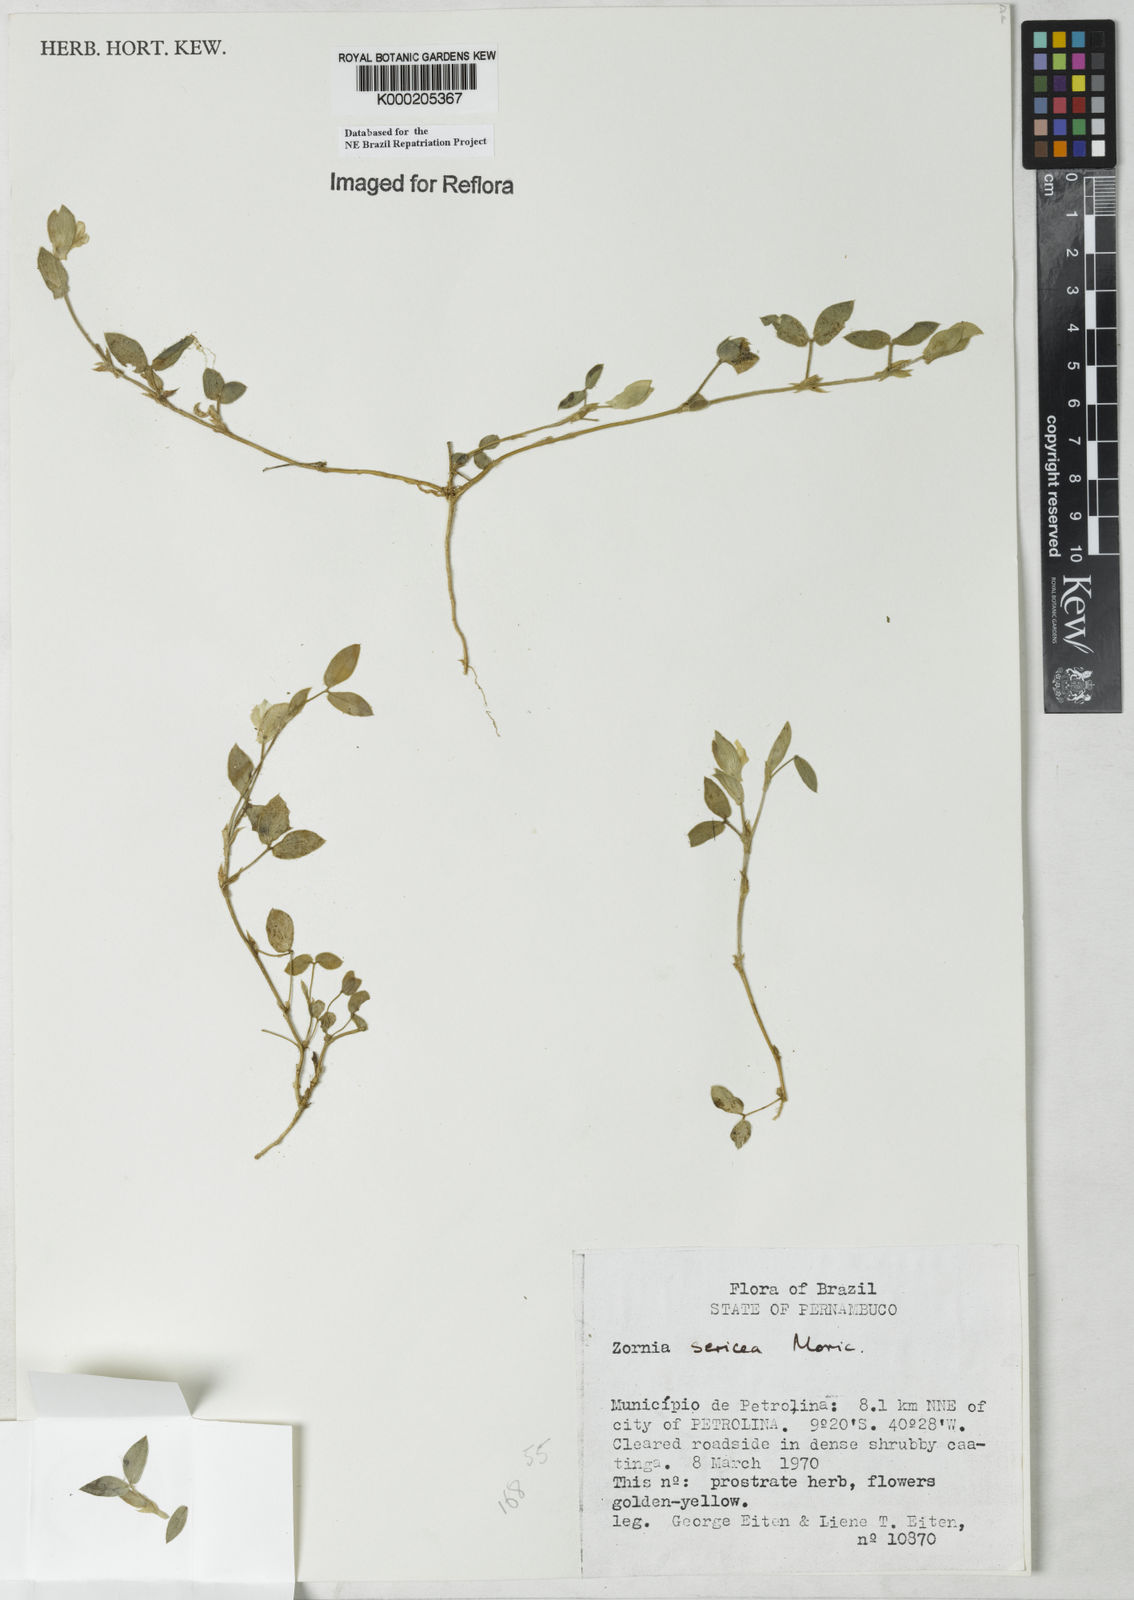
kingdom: Plantae
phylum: Tracheophyta
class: Magnoliopsida
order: Fabales
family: Fabaceae
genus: Zornia
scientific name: Zornia sericea
